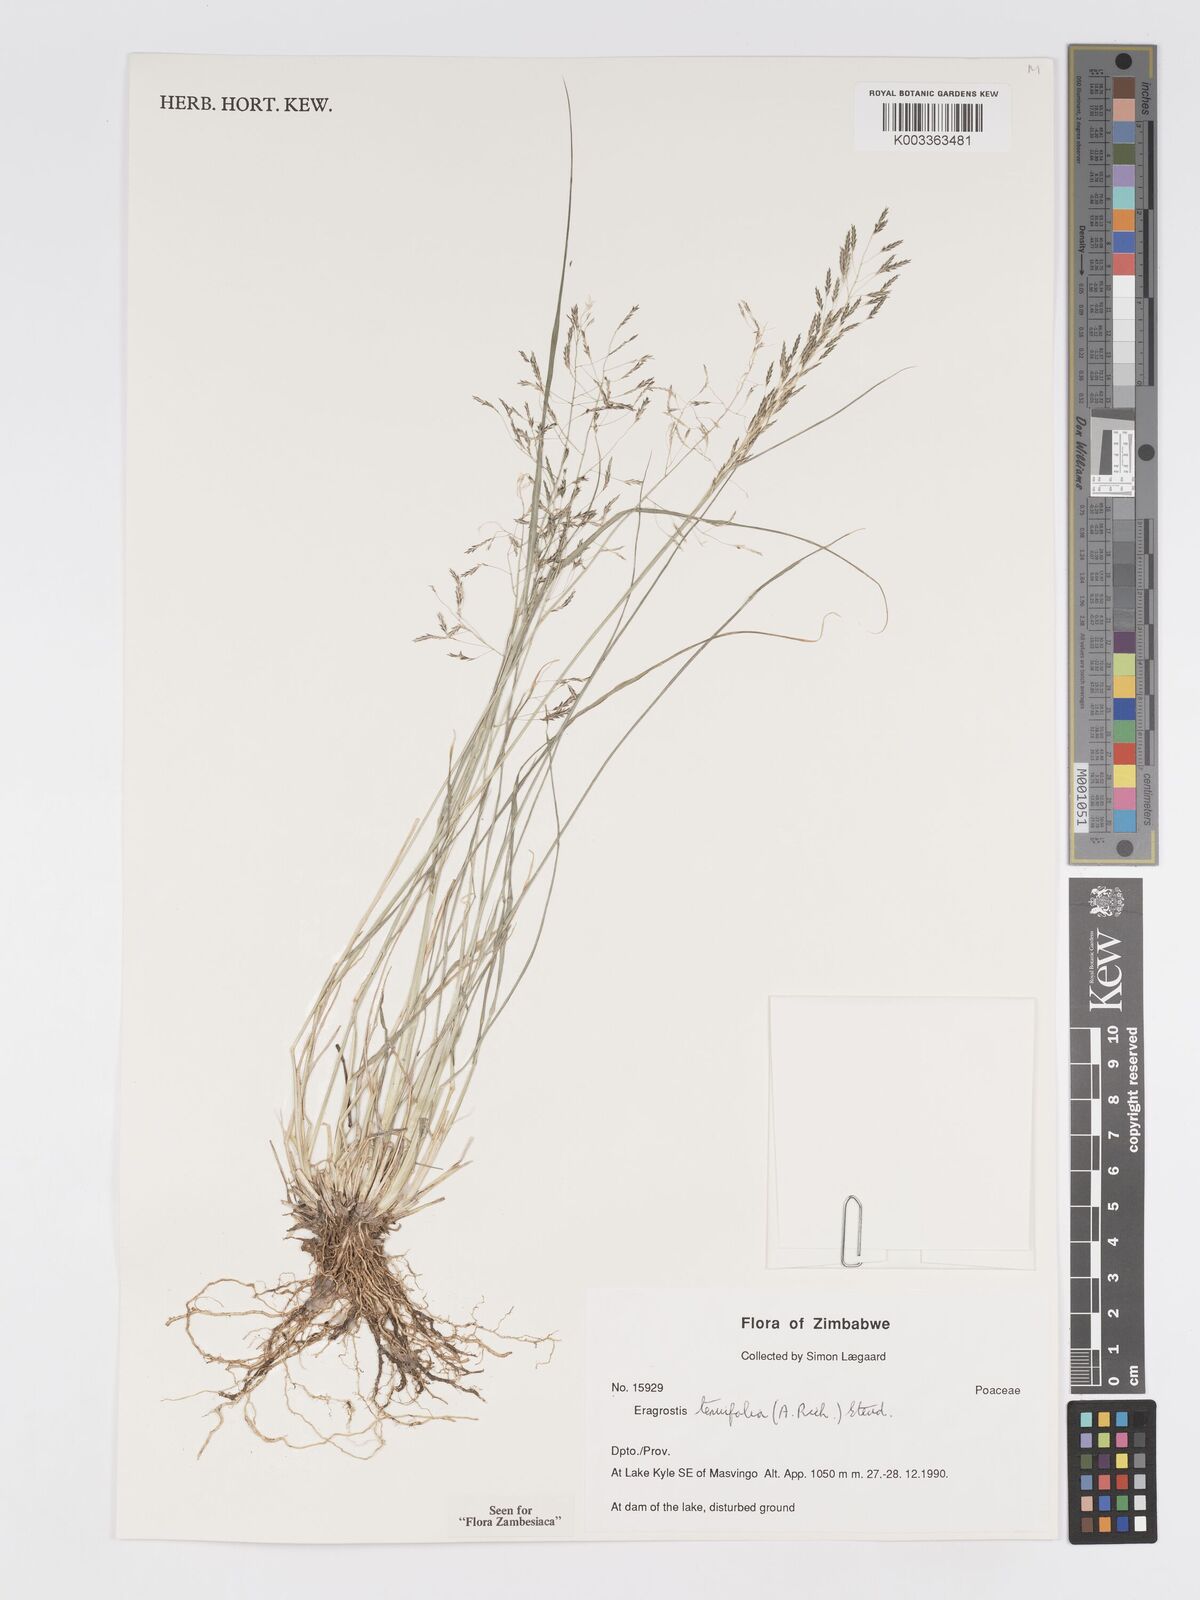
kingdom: Plantae
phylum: Tracheophyta
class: Liliopsida
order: Poales
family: Poaceae
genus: Eragrostis
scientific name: Eragrostis tenuifolia
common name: Elastic grass
